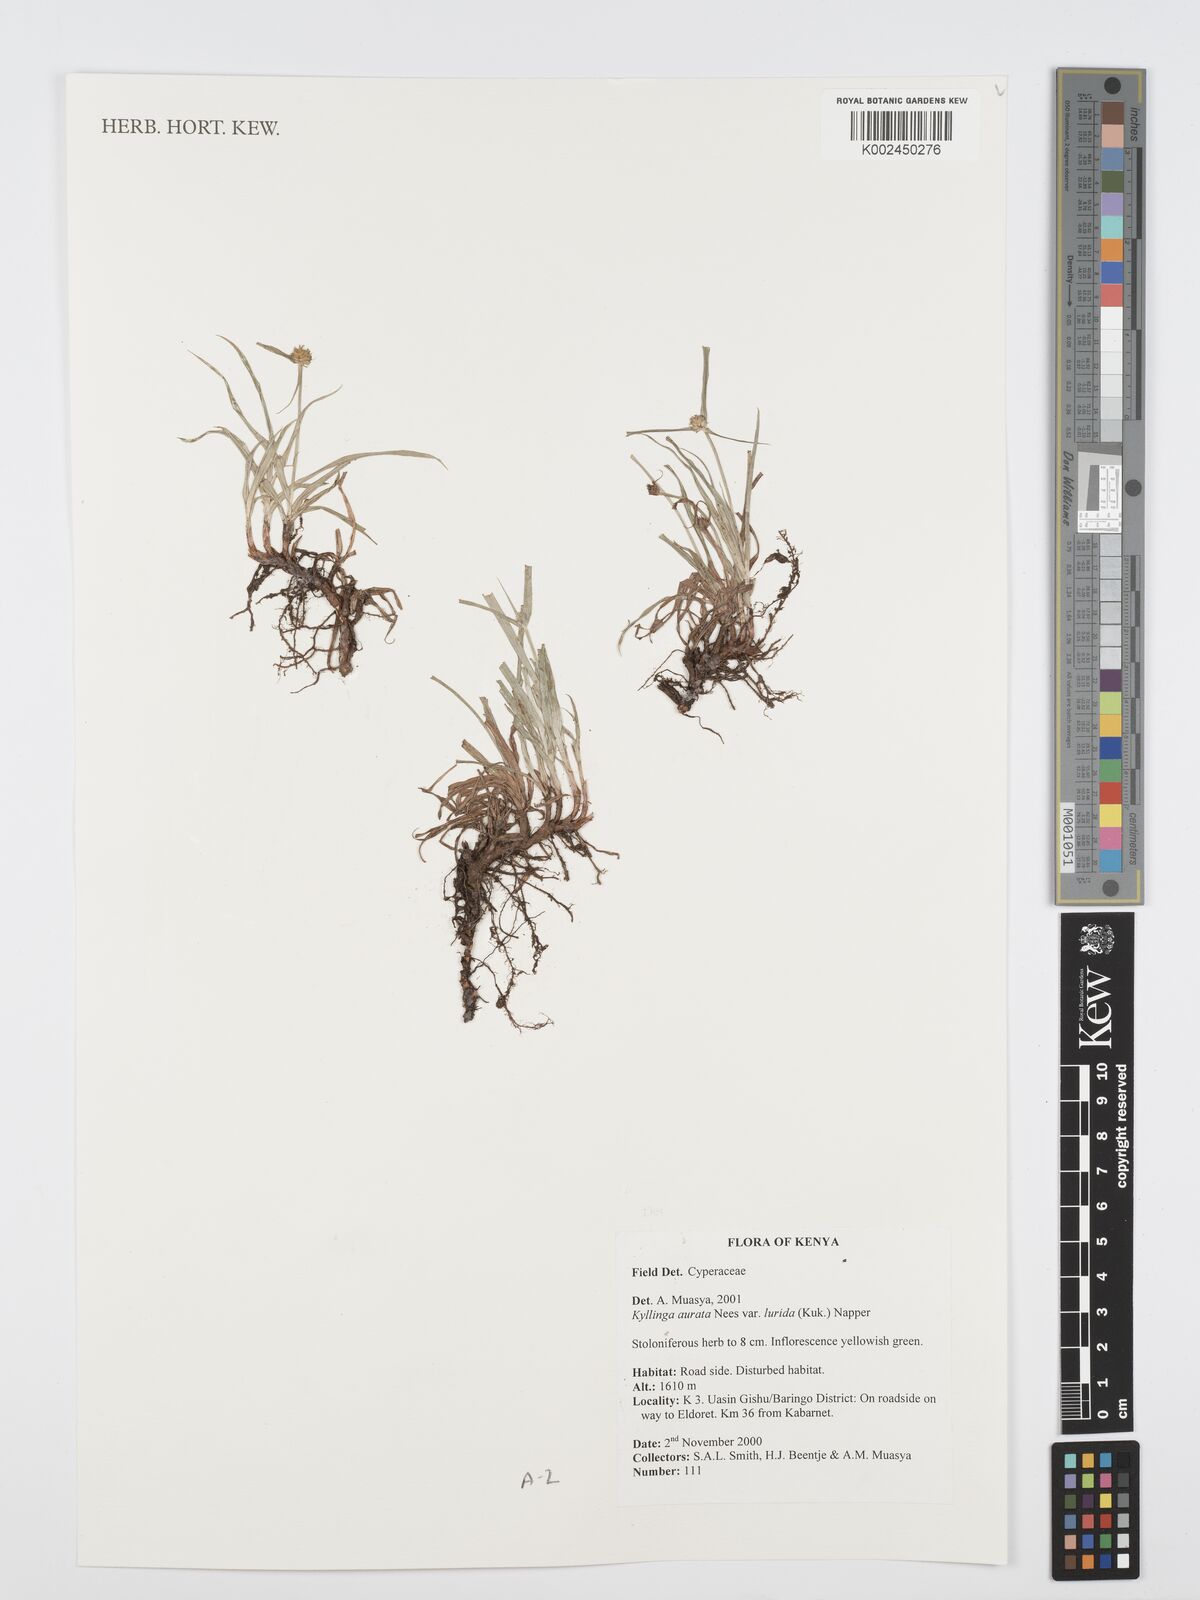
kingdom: Plantae
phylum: Tracheophyta
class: Liliopsida
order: Poales
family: Cyperaceae
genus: Cyperus
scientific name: Cyperus
